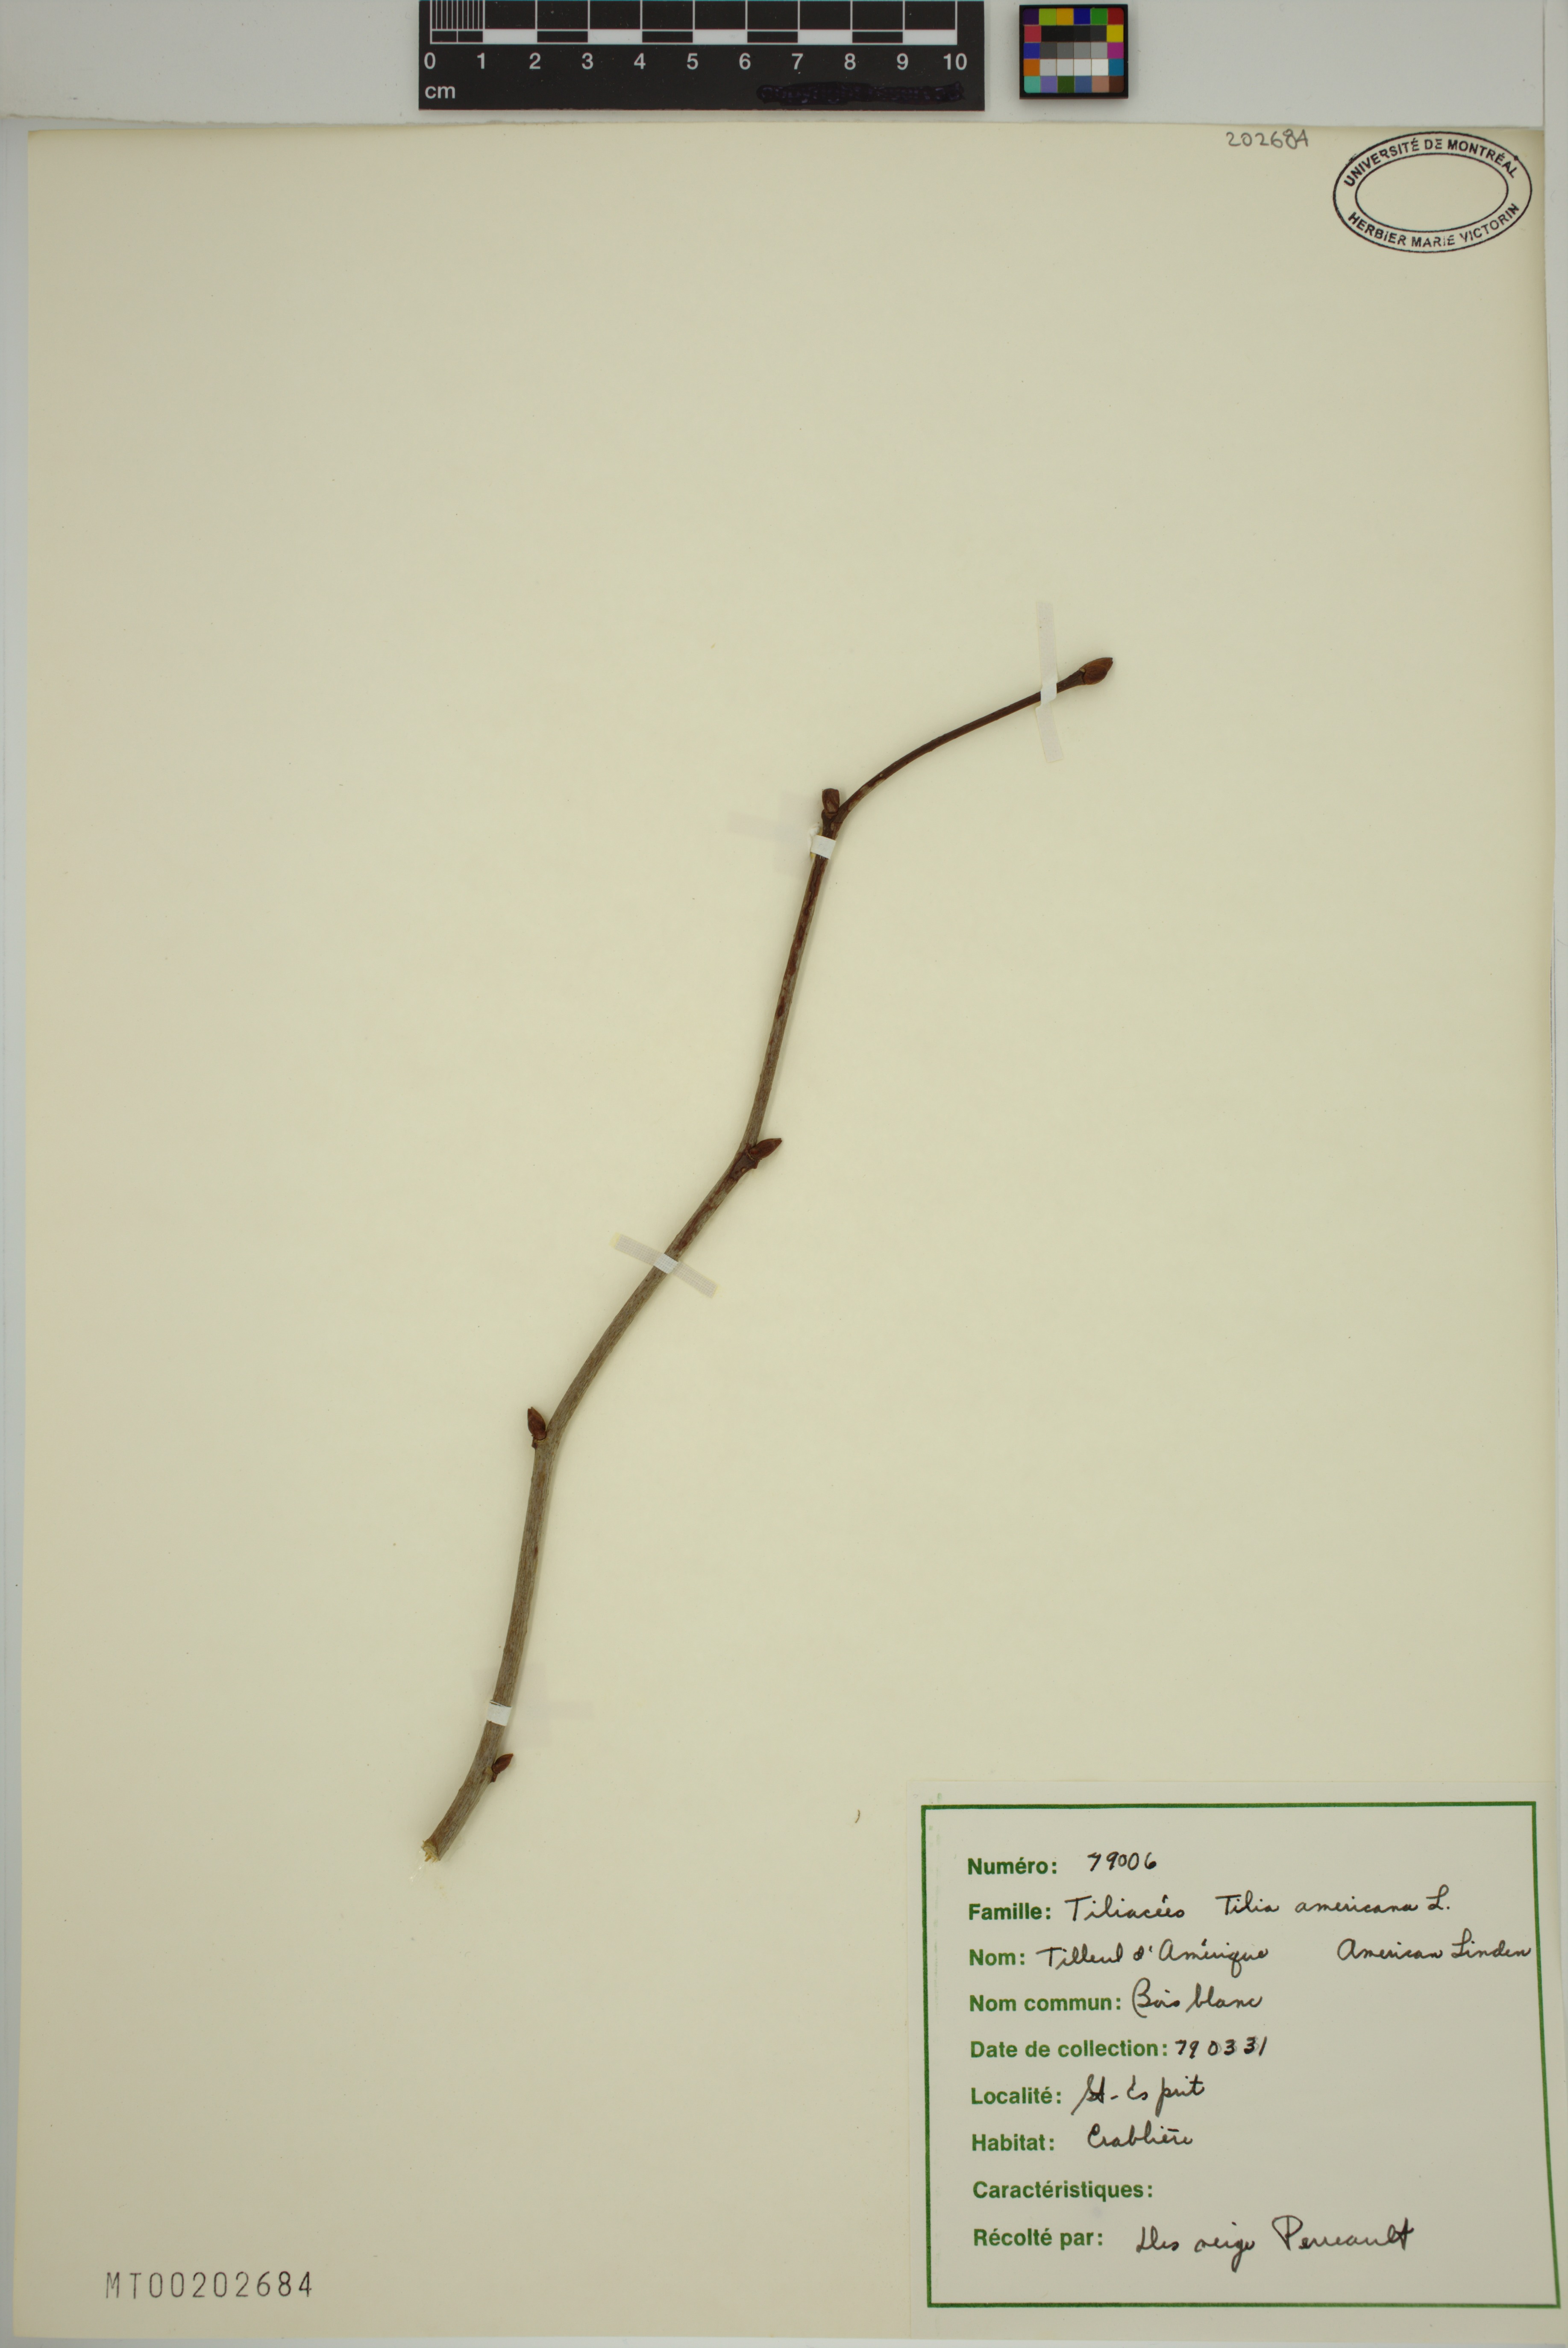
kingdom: Plantae
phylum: Tracheophyta
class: Magnoliopsida
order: Malvales
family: Malvaceae
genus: Tilia
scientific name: Tilia americana
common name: Basswood
